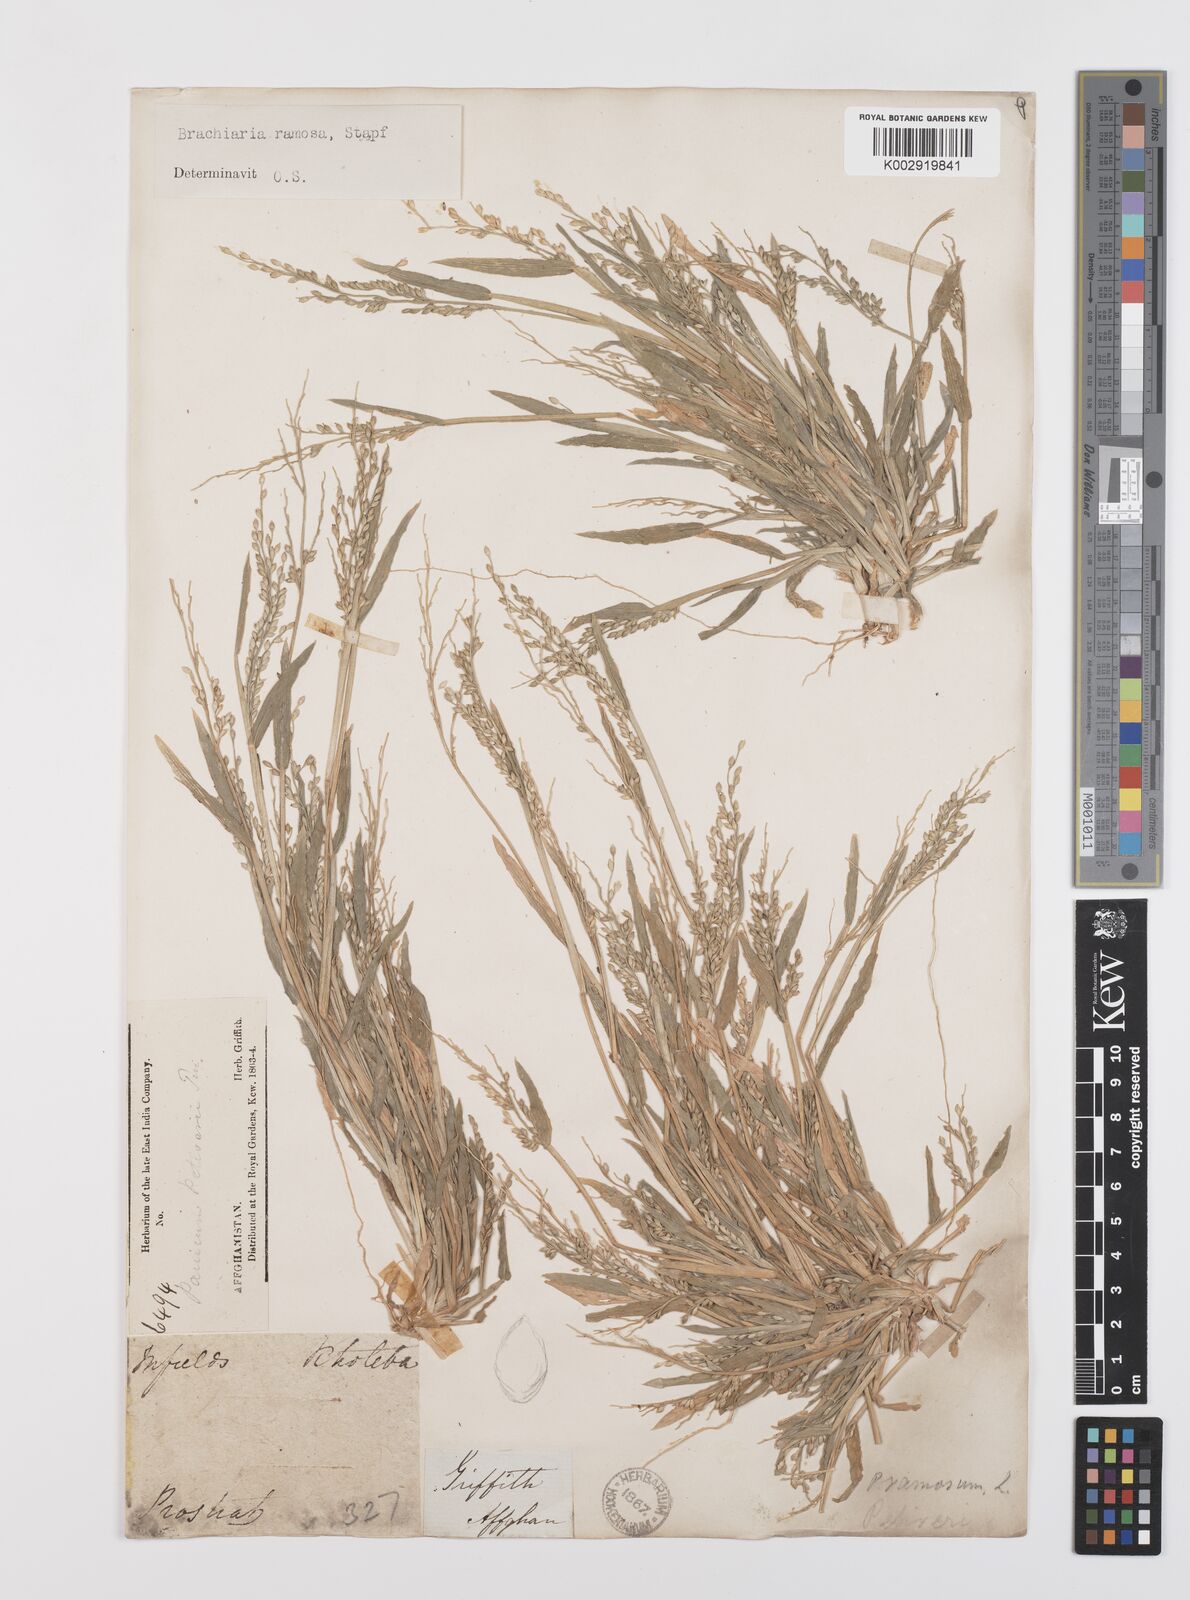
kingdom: Plantae
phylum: Tracheophyta
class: Liliopsida
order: Poales
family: Poaceae
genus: Urochloa
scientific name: Urochloa ramosa
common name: Browntop millet
